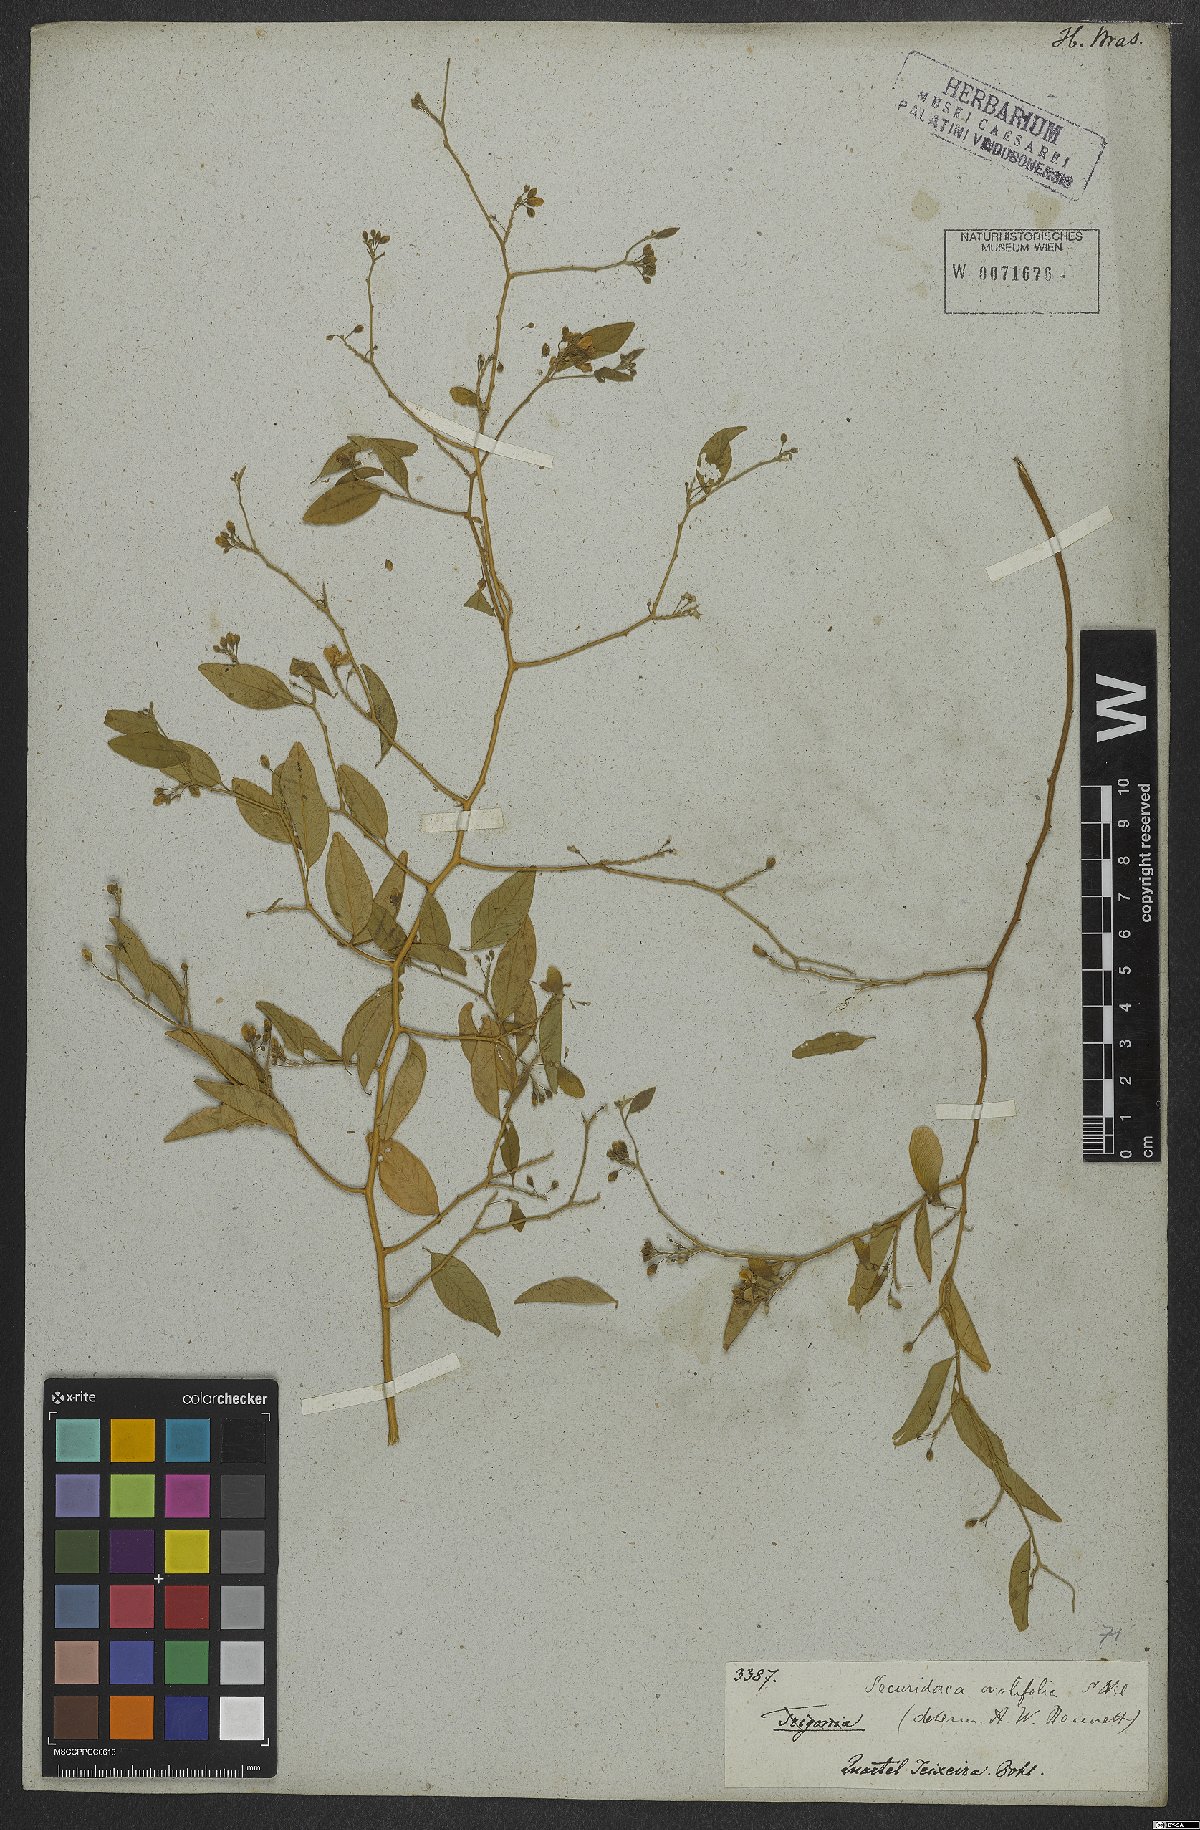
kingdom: Plantae
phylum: Tracheophyta
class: Magnoliopsida
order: Fabales
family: Polygalaceae
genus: Securidaca
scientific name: Securidaca ovalifolia
